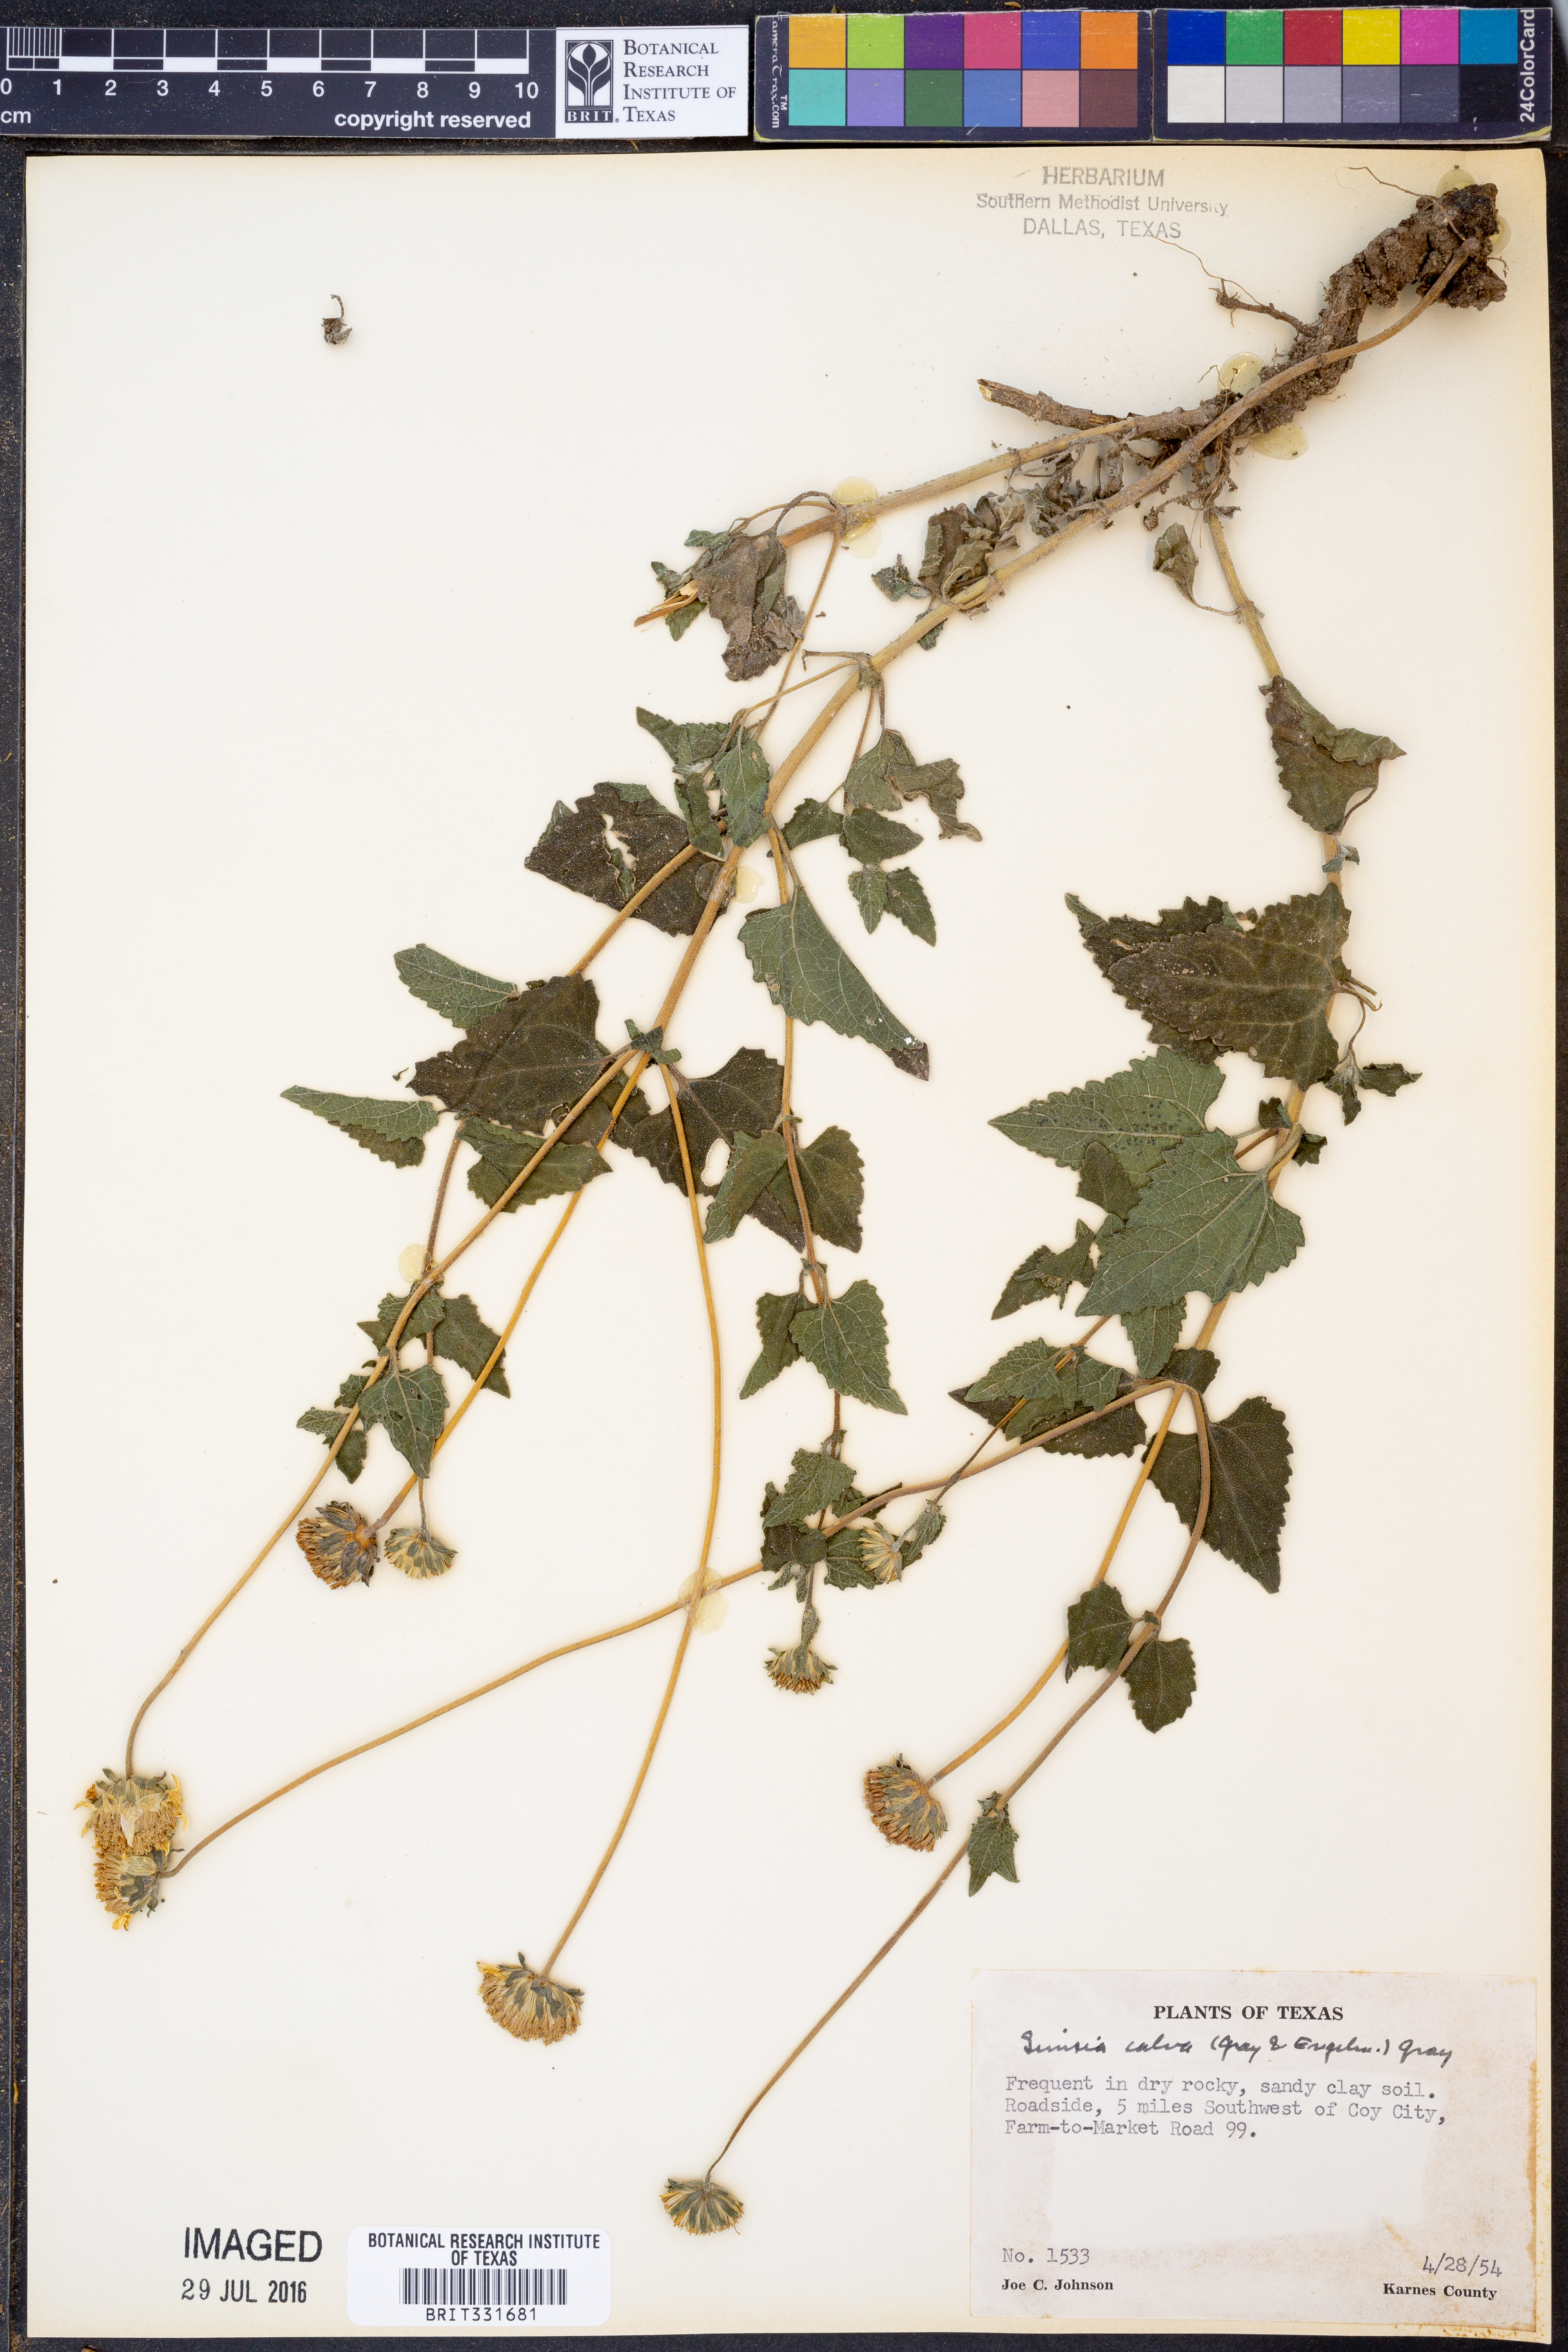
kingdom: Plantae
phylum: Tracheophyta
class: Magnoliopsida
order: Asterales
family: Asteraceae
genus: Simsia
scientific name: Simsia calva
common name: Awnless bush-sunflower
